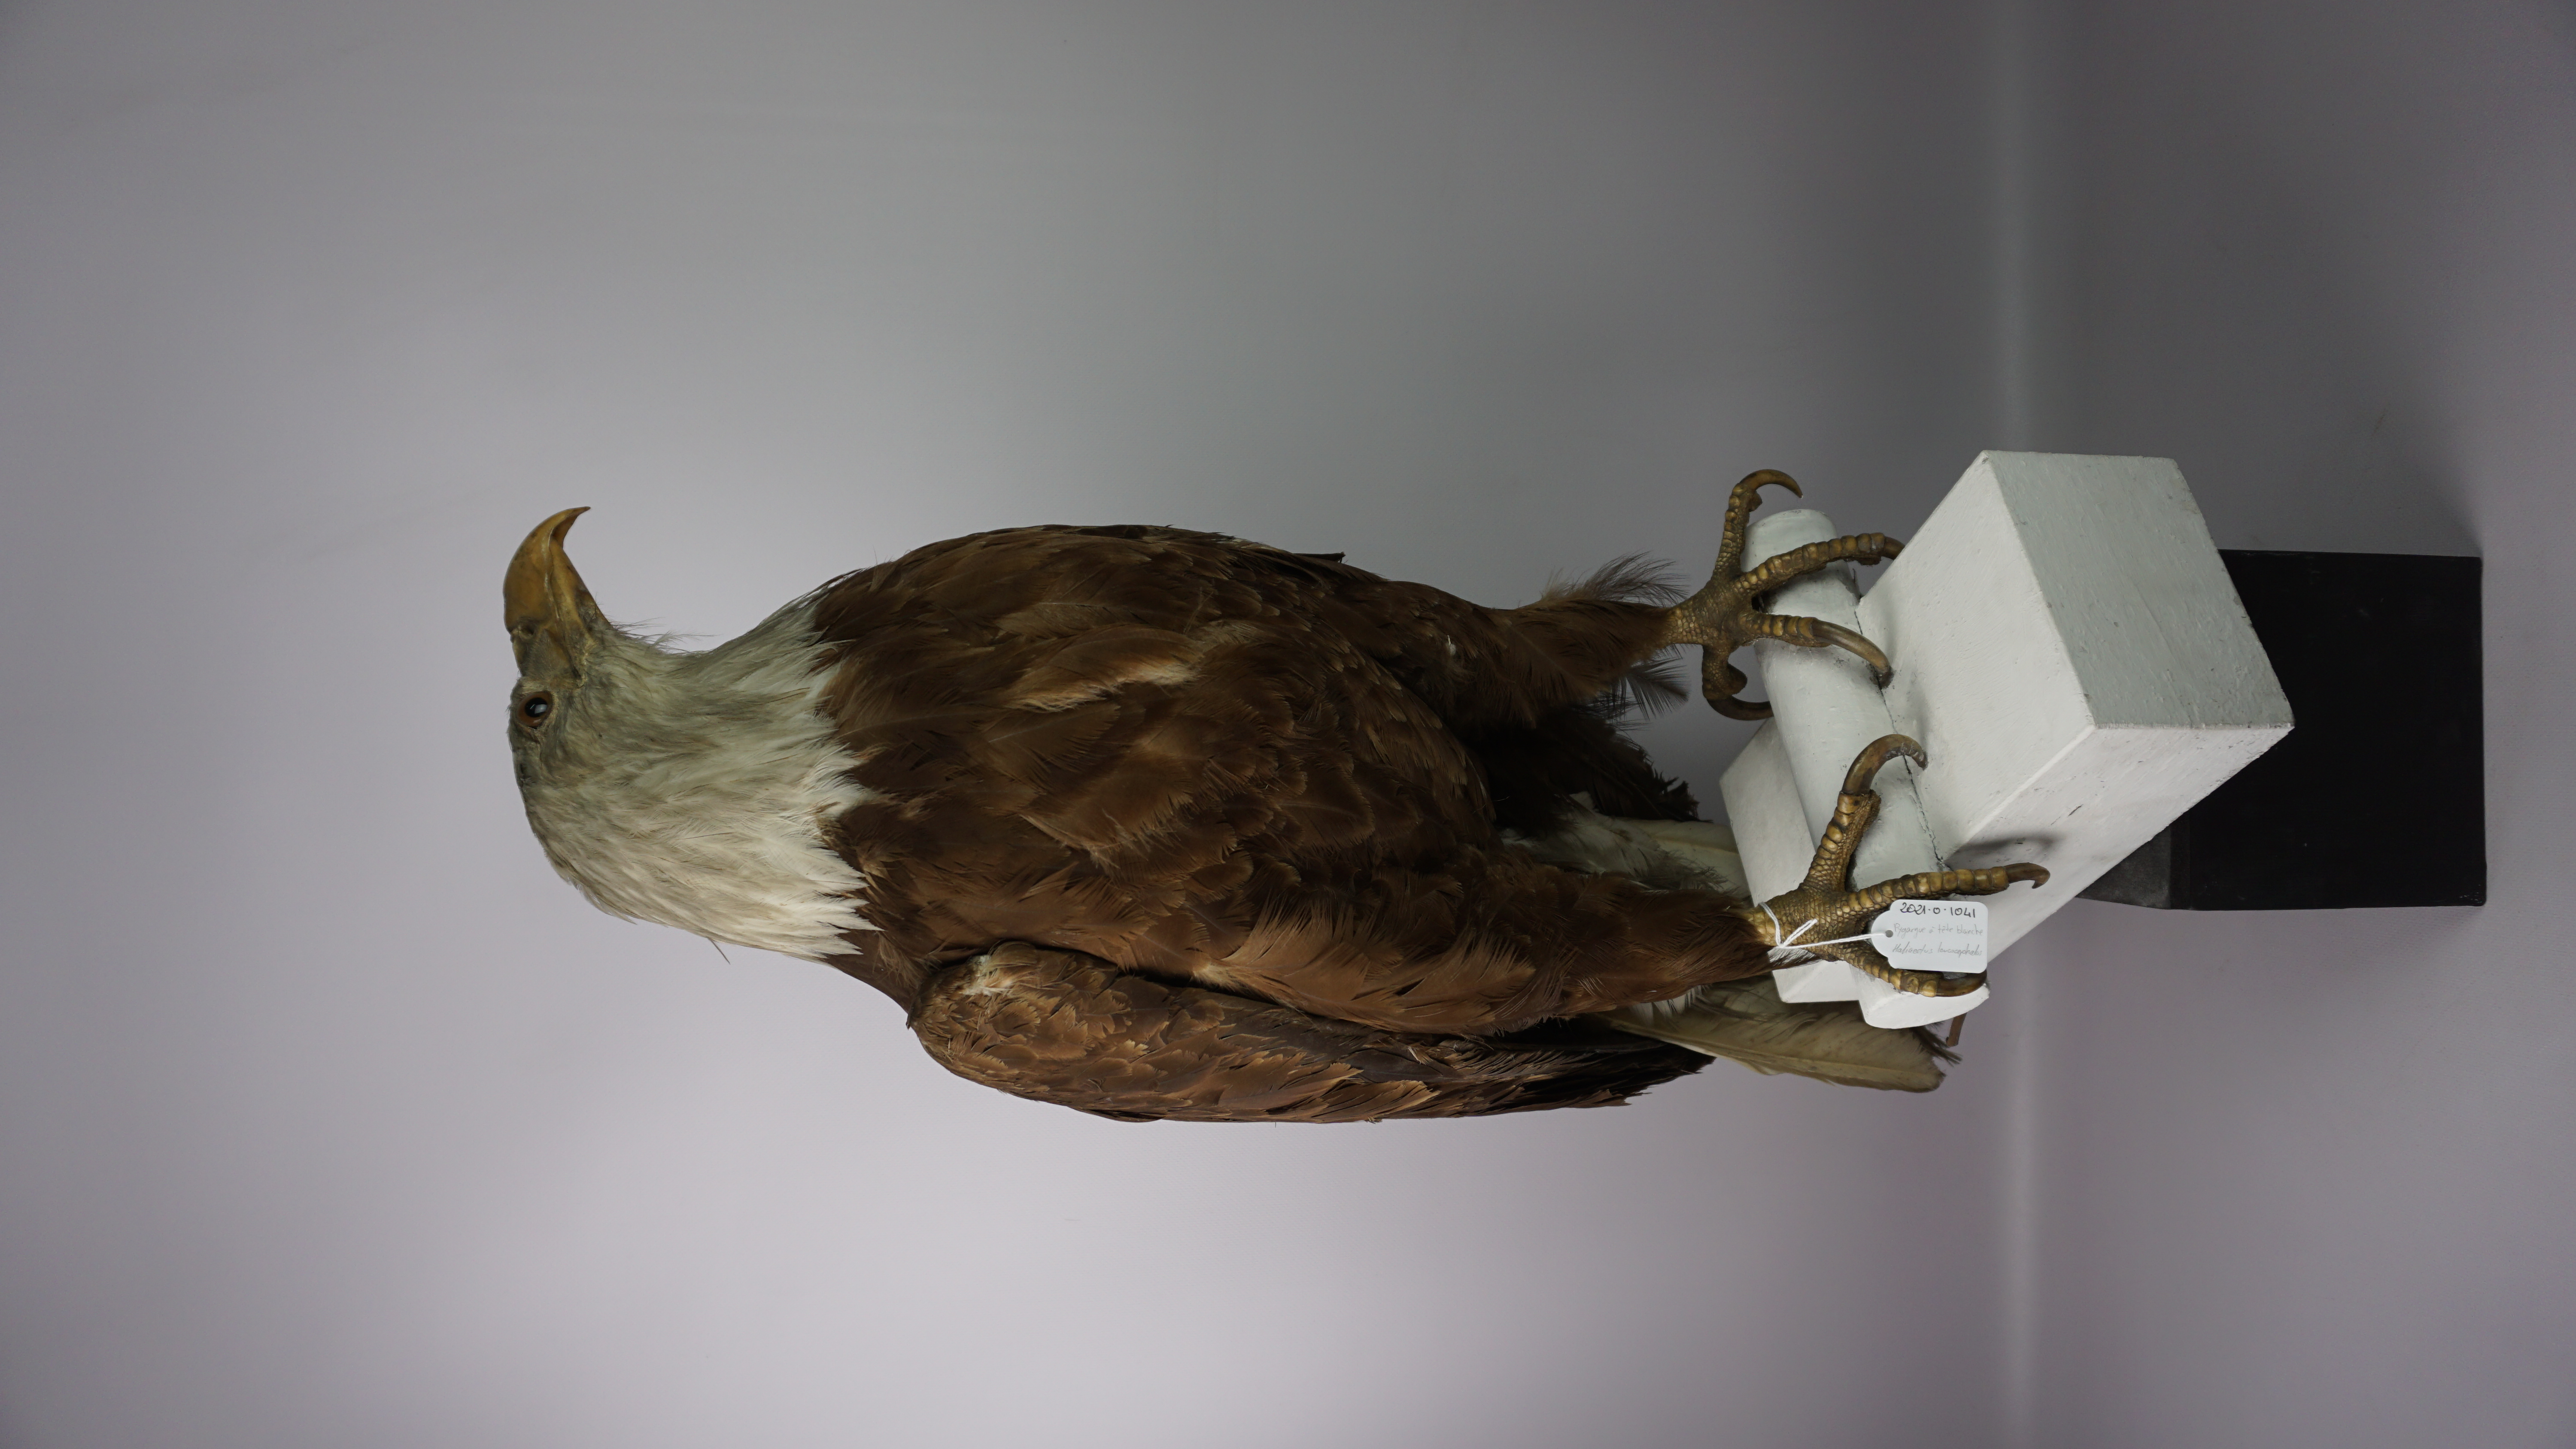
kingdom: Animalia
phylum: Chordata
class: Aves
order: Accipitriformes
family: Accipitridae
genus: Haliaeetus
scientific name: Haliaeetus leucocephalus
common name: Bald eagle
